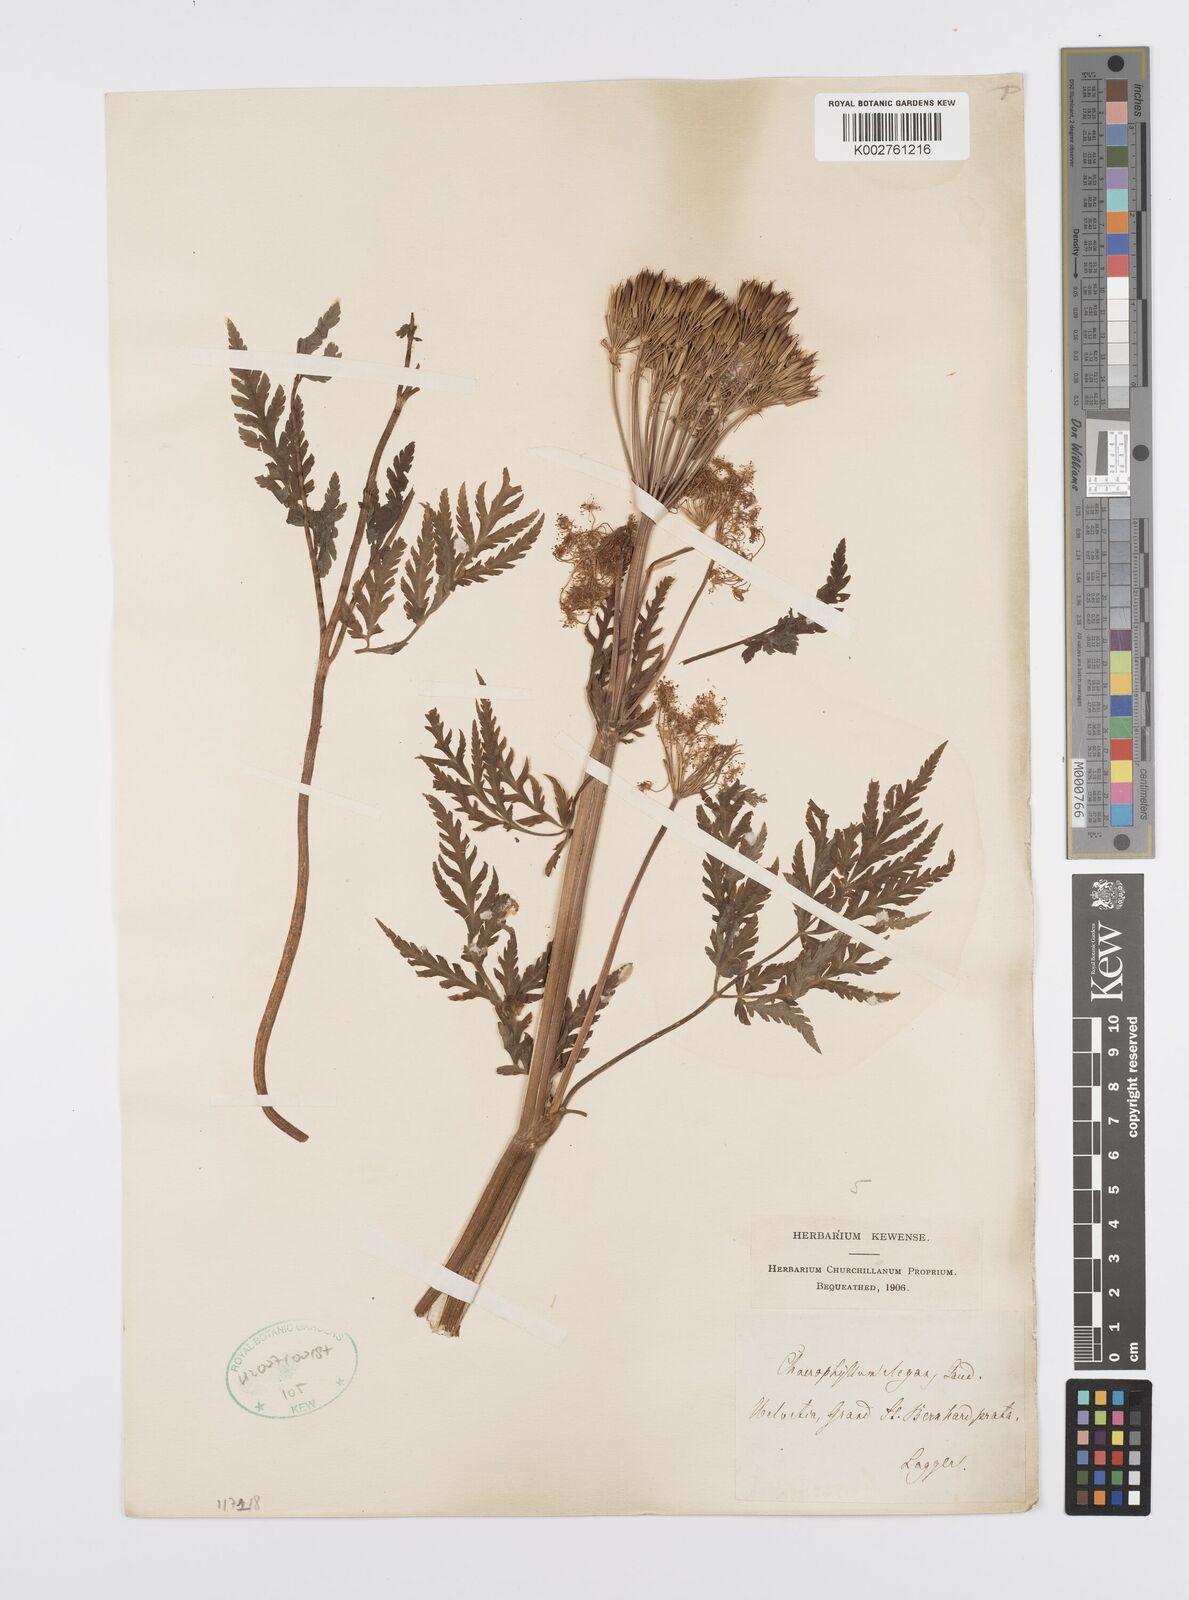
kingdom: Plantae
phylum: Tracheophyta
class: Magnoliopsida
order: Apiales
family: Apiaceae
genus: Chaerophyllum
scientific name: Chaerophyllum elegans
